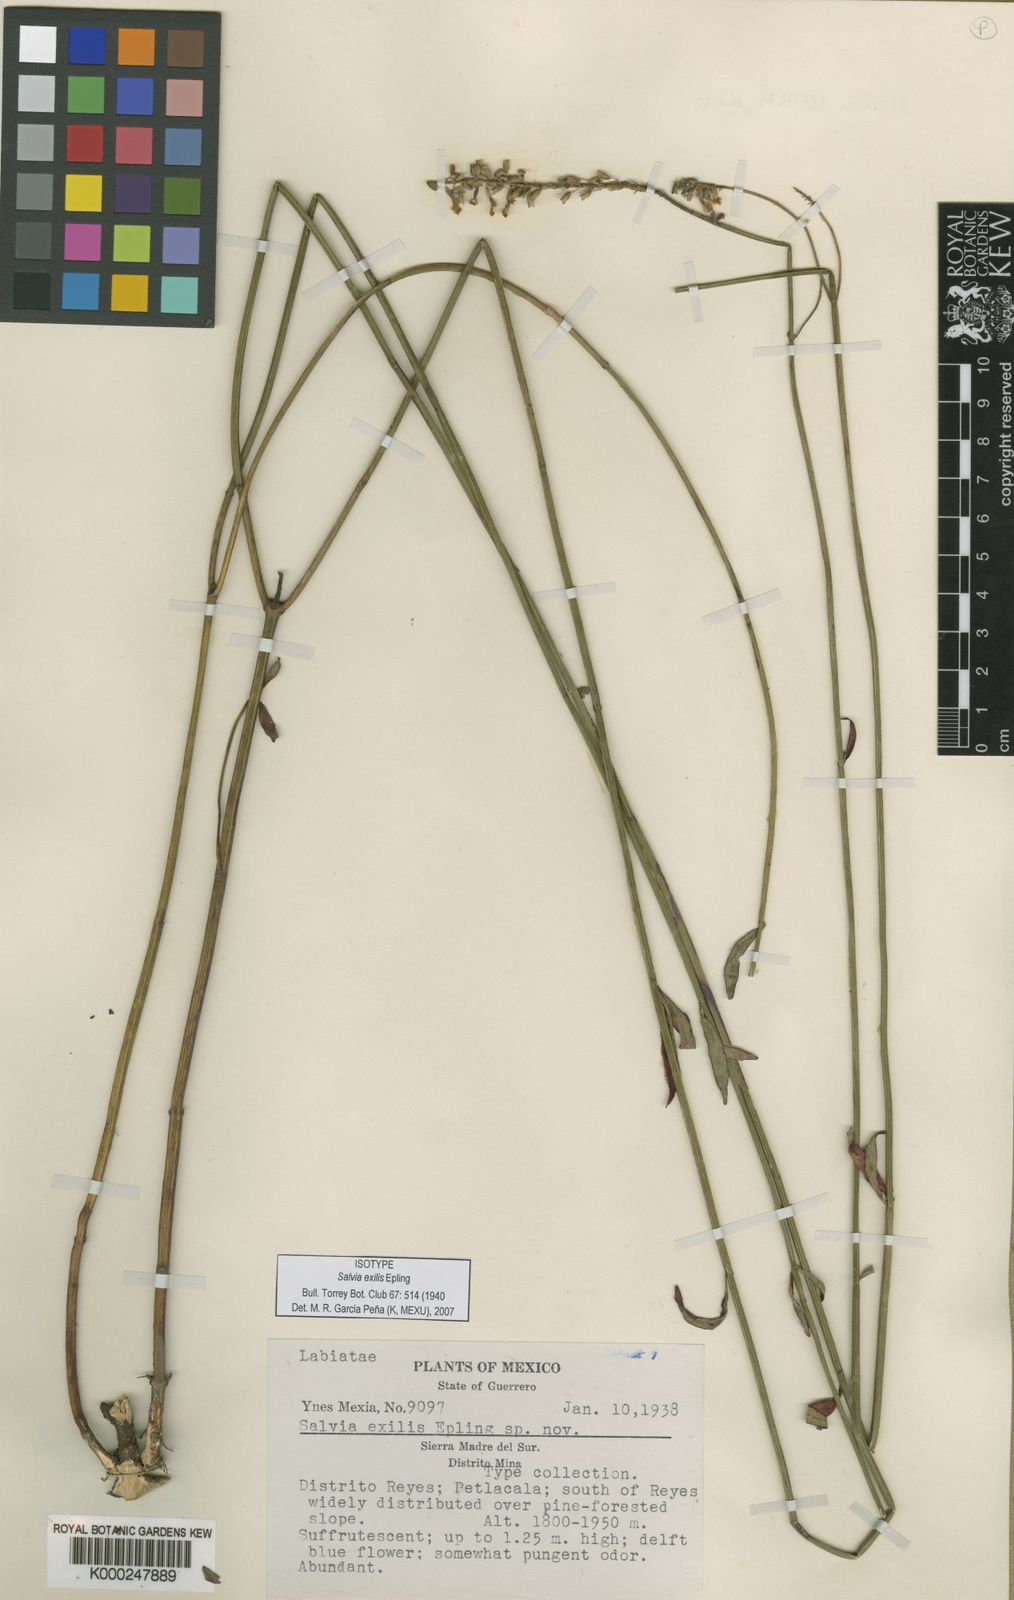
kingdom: Plantae
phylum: Tracheophyta
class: Magnoliopsida
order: Lamiales
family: Lamiaceae
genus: Salvia
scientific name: Salvia exilis
